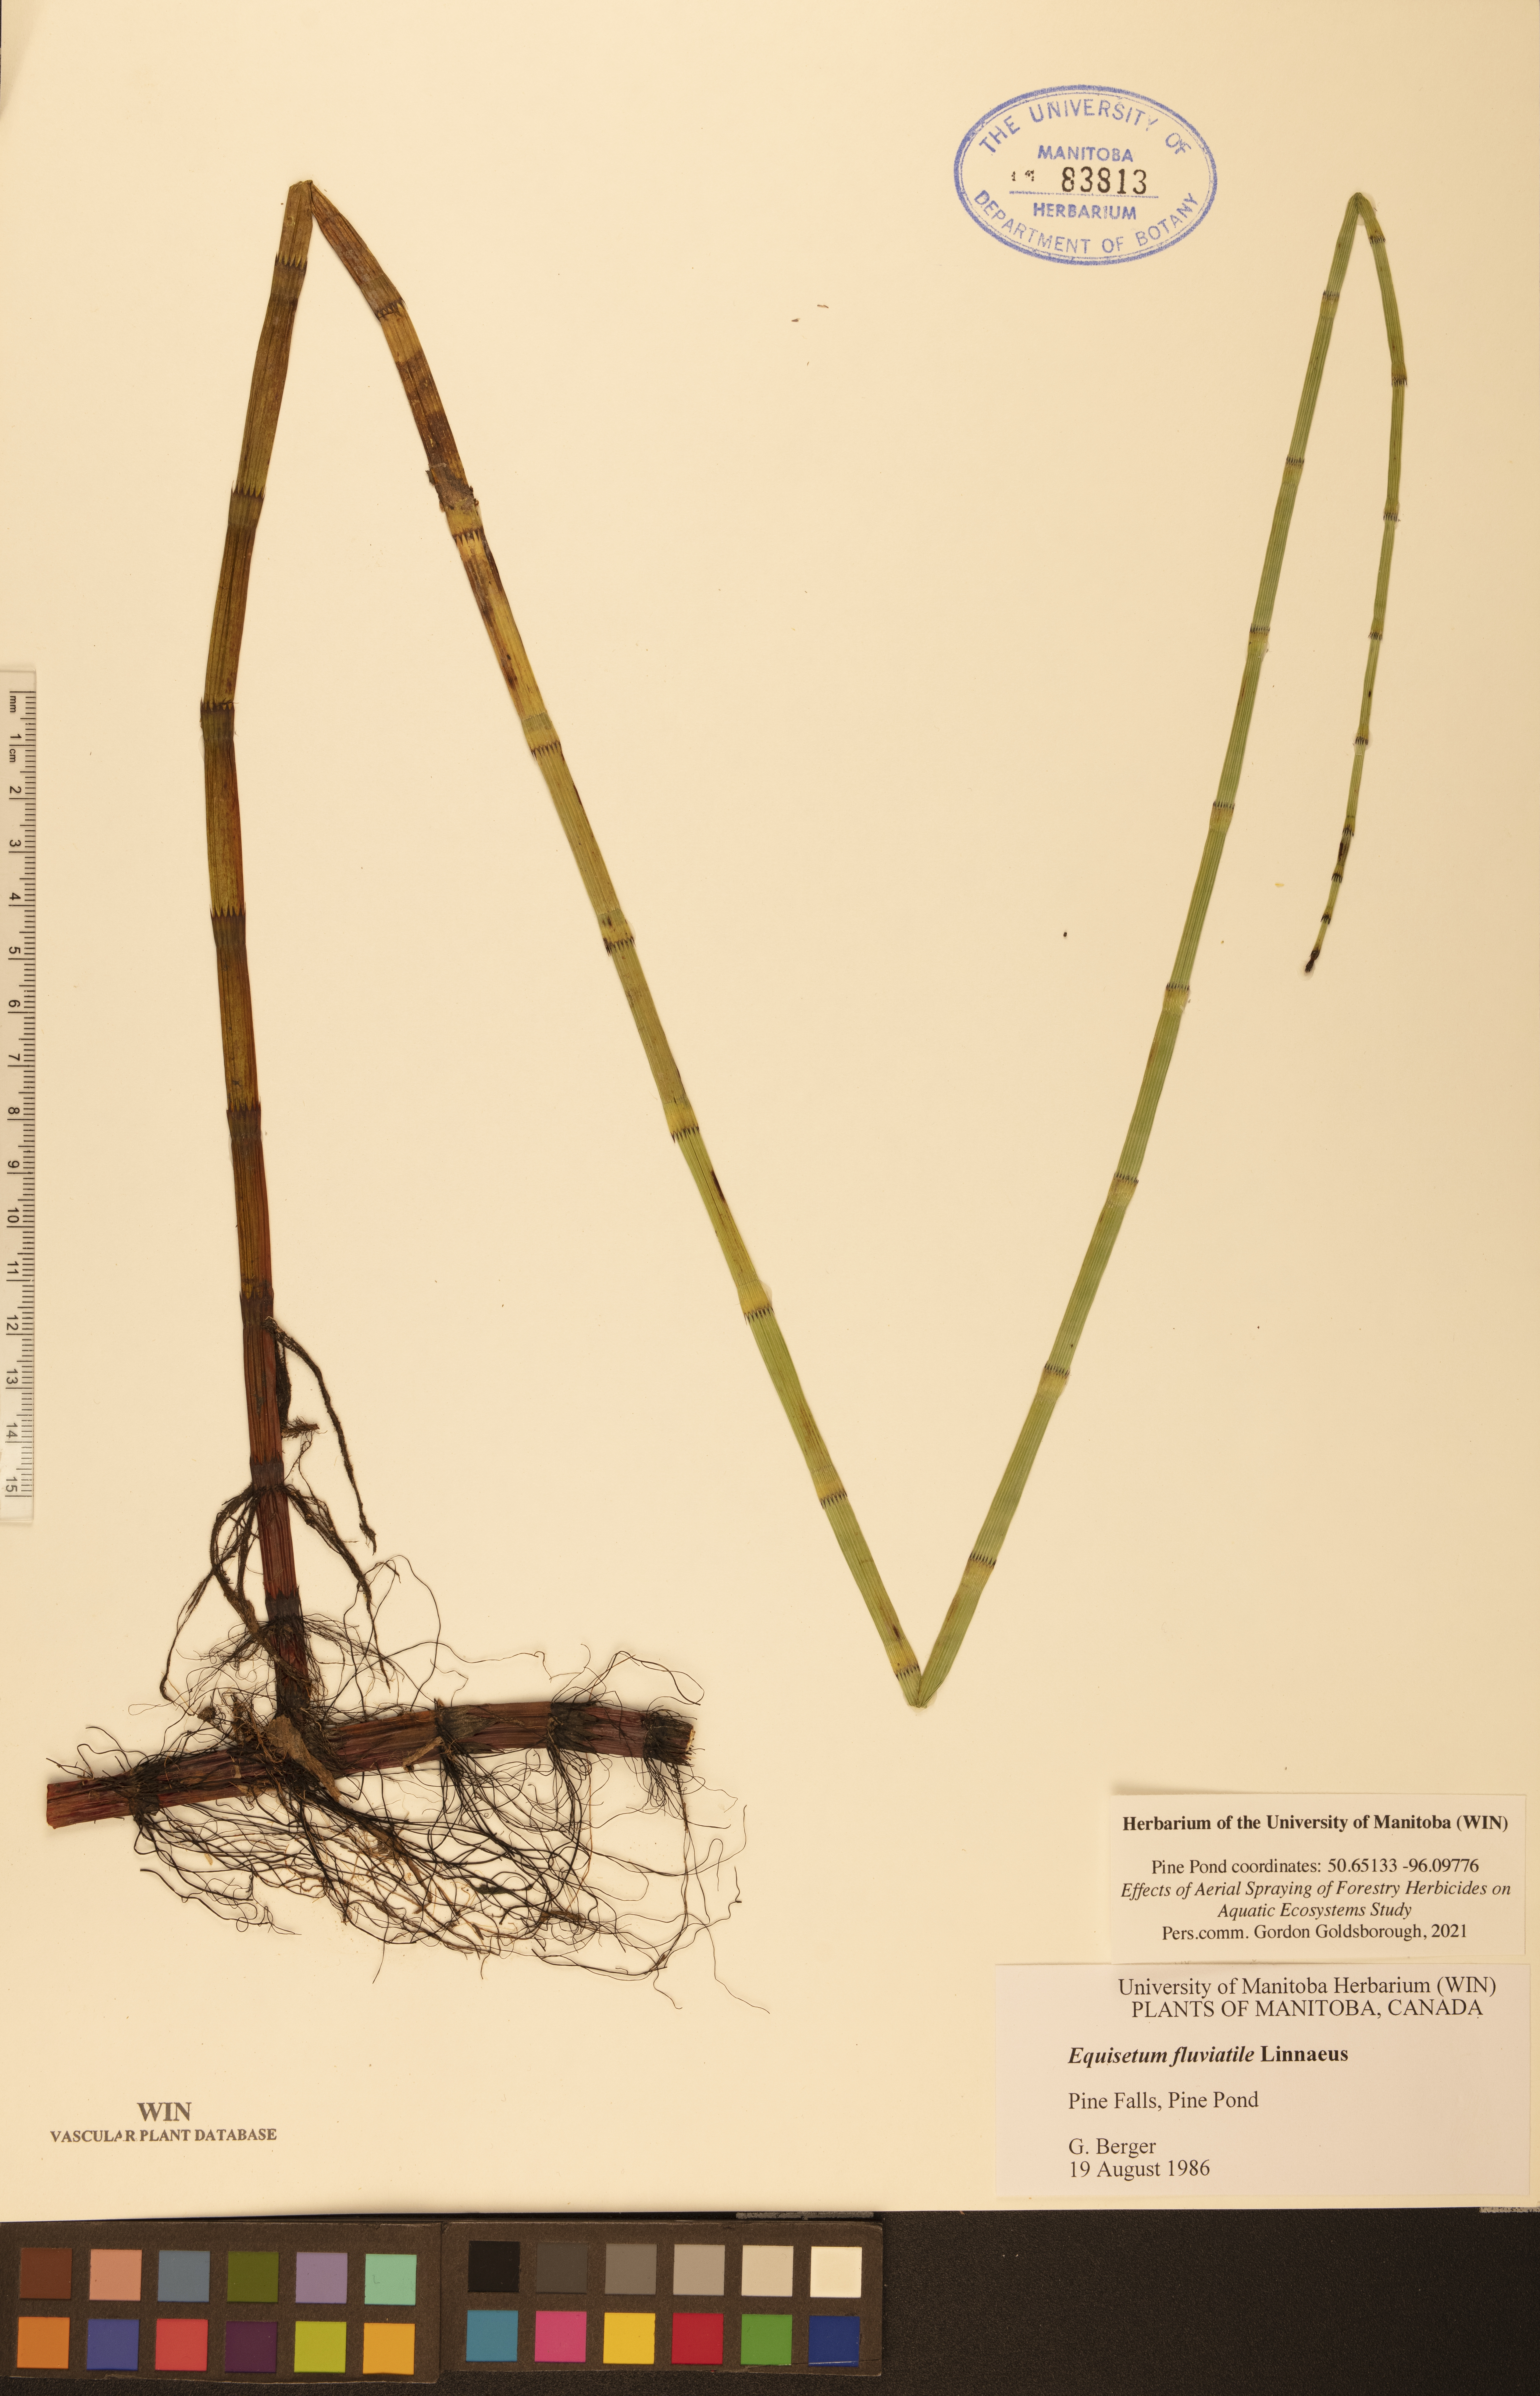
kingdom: Plantae
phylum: Tracheophyta
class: Polypodiopsida
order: Equisetales
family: Equisetaceae
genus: Equisetum
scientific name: Equisetum fluviatile
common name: Water horsetail
